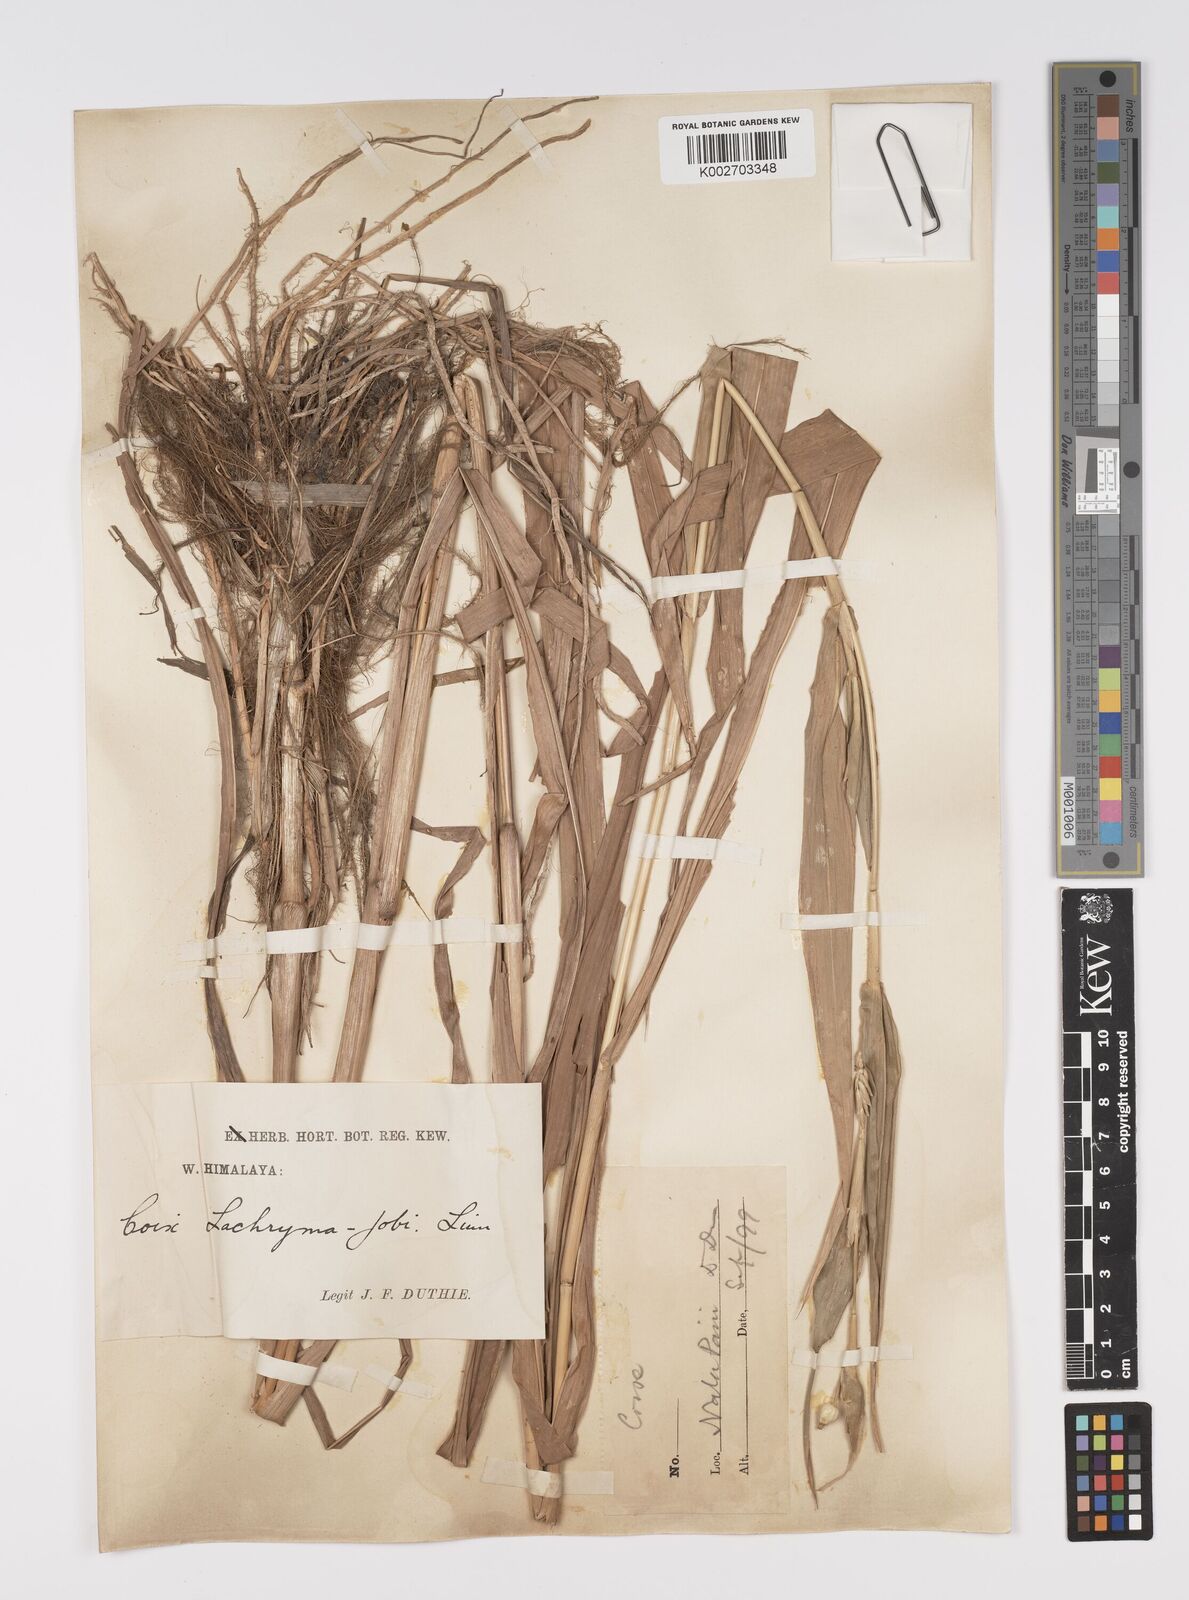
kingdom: Plantae
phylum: Tracheophyta
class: Liliopsida
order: Poales
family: Poaceae
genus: Coix
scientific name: Coix lacryma-jobi
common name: Job's tears
